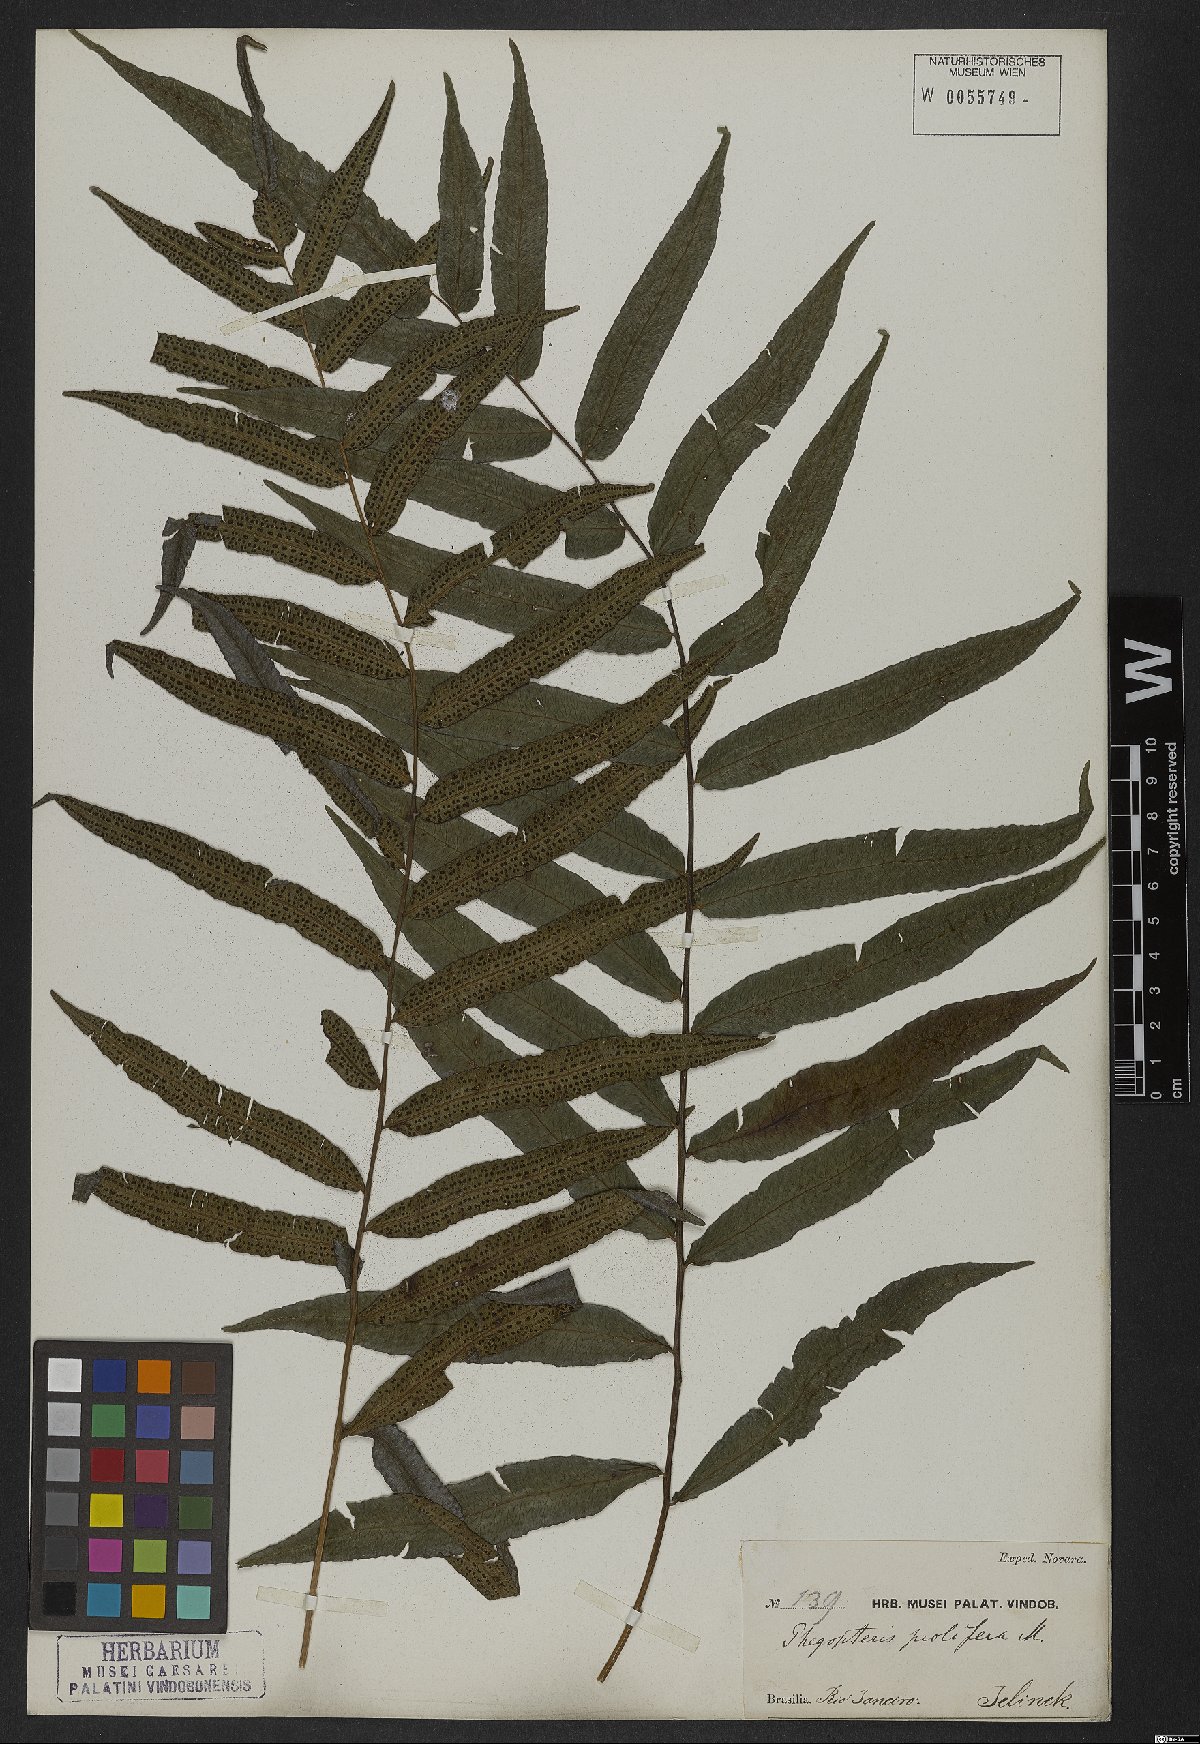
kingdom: Plantae
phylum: Tracheophyta
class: Polypodiopsida
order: Polypodiales
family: Thelypteridaceae
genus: Goniopteris
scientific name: Goniopteris vivipara
